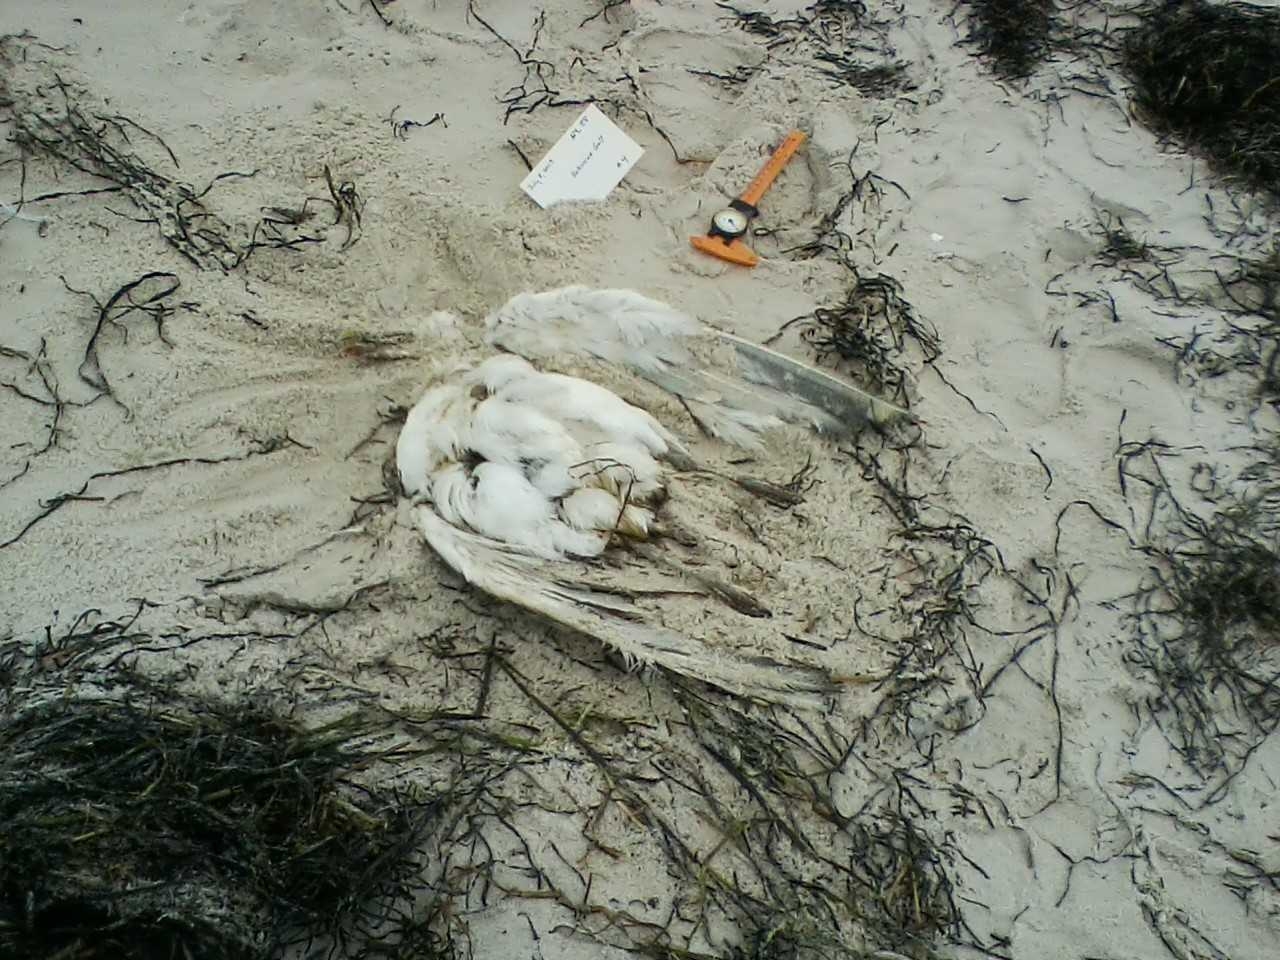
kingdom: Animalia
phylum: Chordata
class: Aves
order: Passeriformes
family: Icteridae
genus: Agelaius
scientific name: Agelaius phoeniceus
